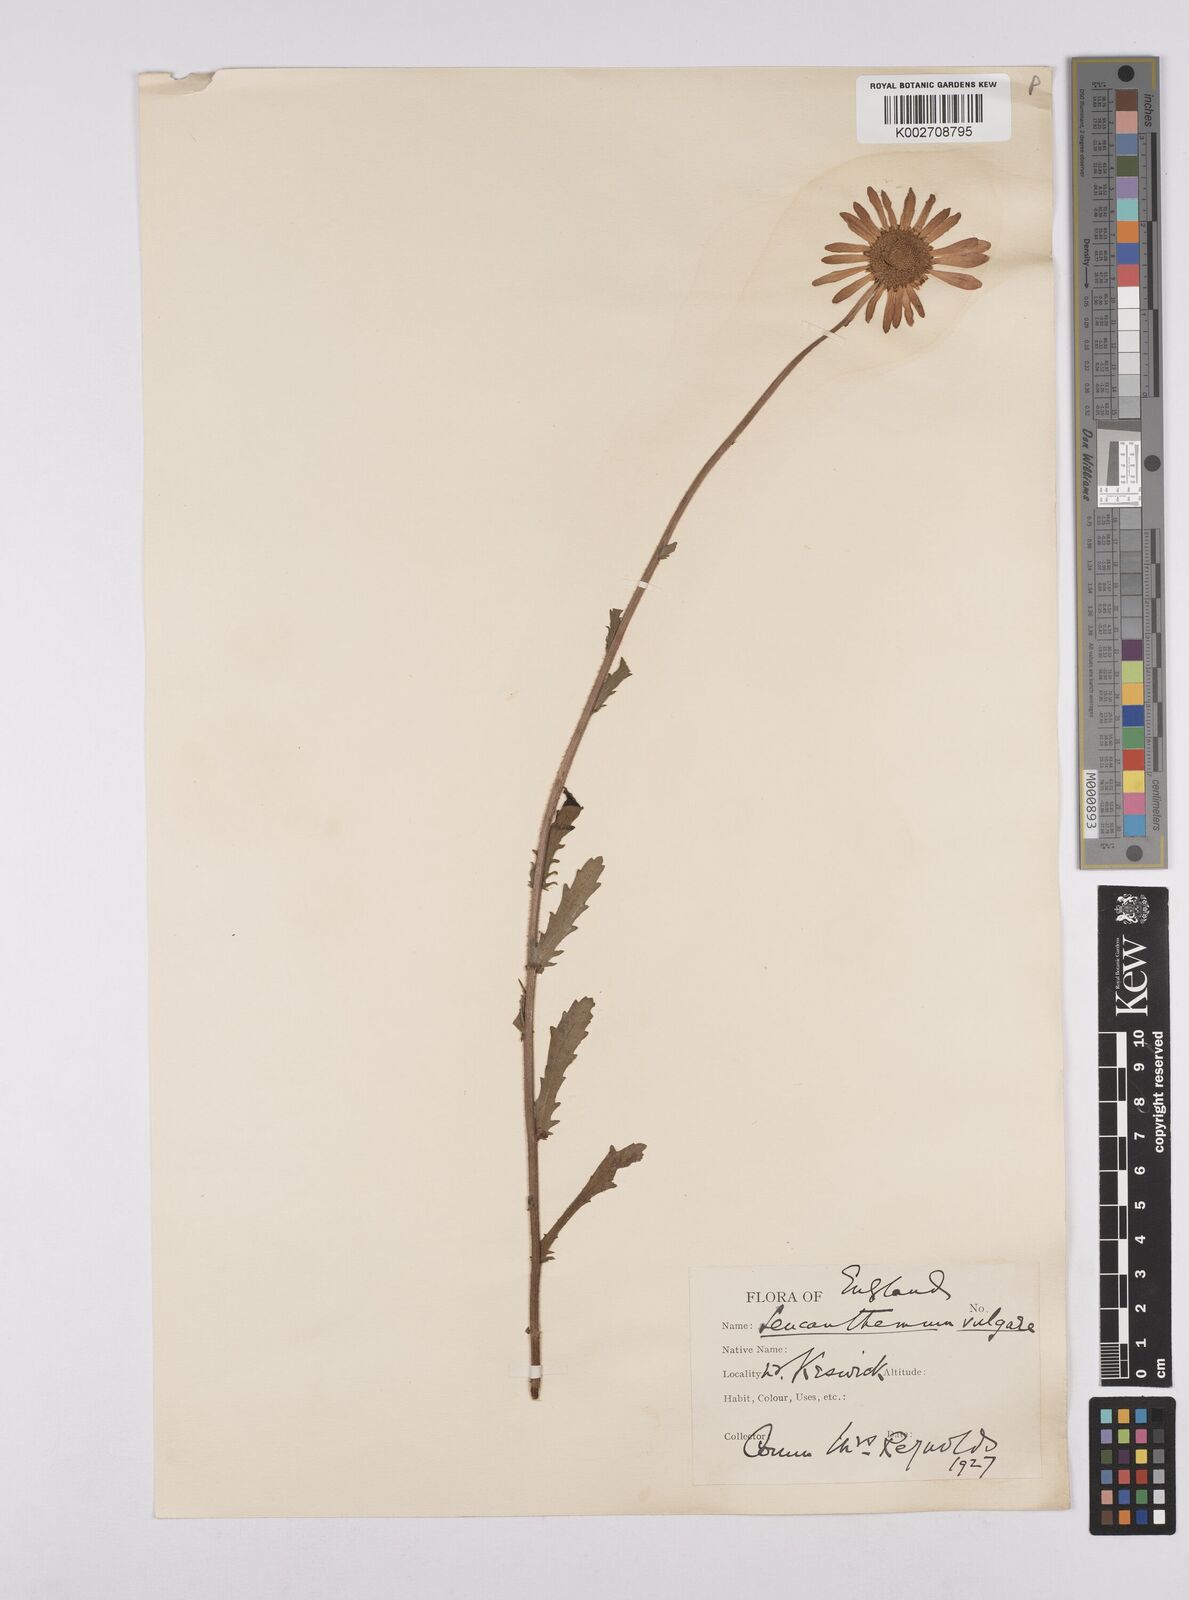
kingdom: Plantae
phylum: Tracheophyta
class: Magnoliopsida
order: Asterales
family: Asteraceae
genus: Leucanthemum
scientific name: Leucanthemum vulgare
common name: Oxeye daisy
